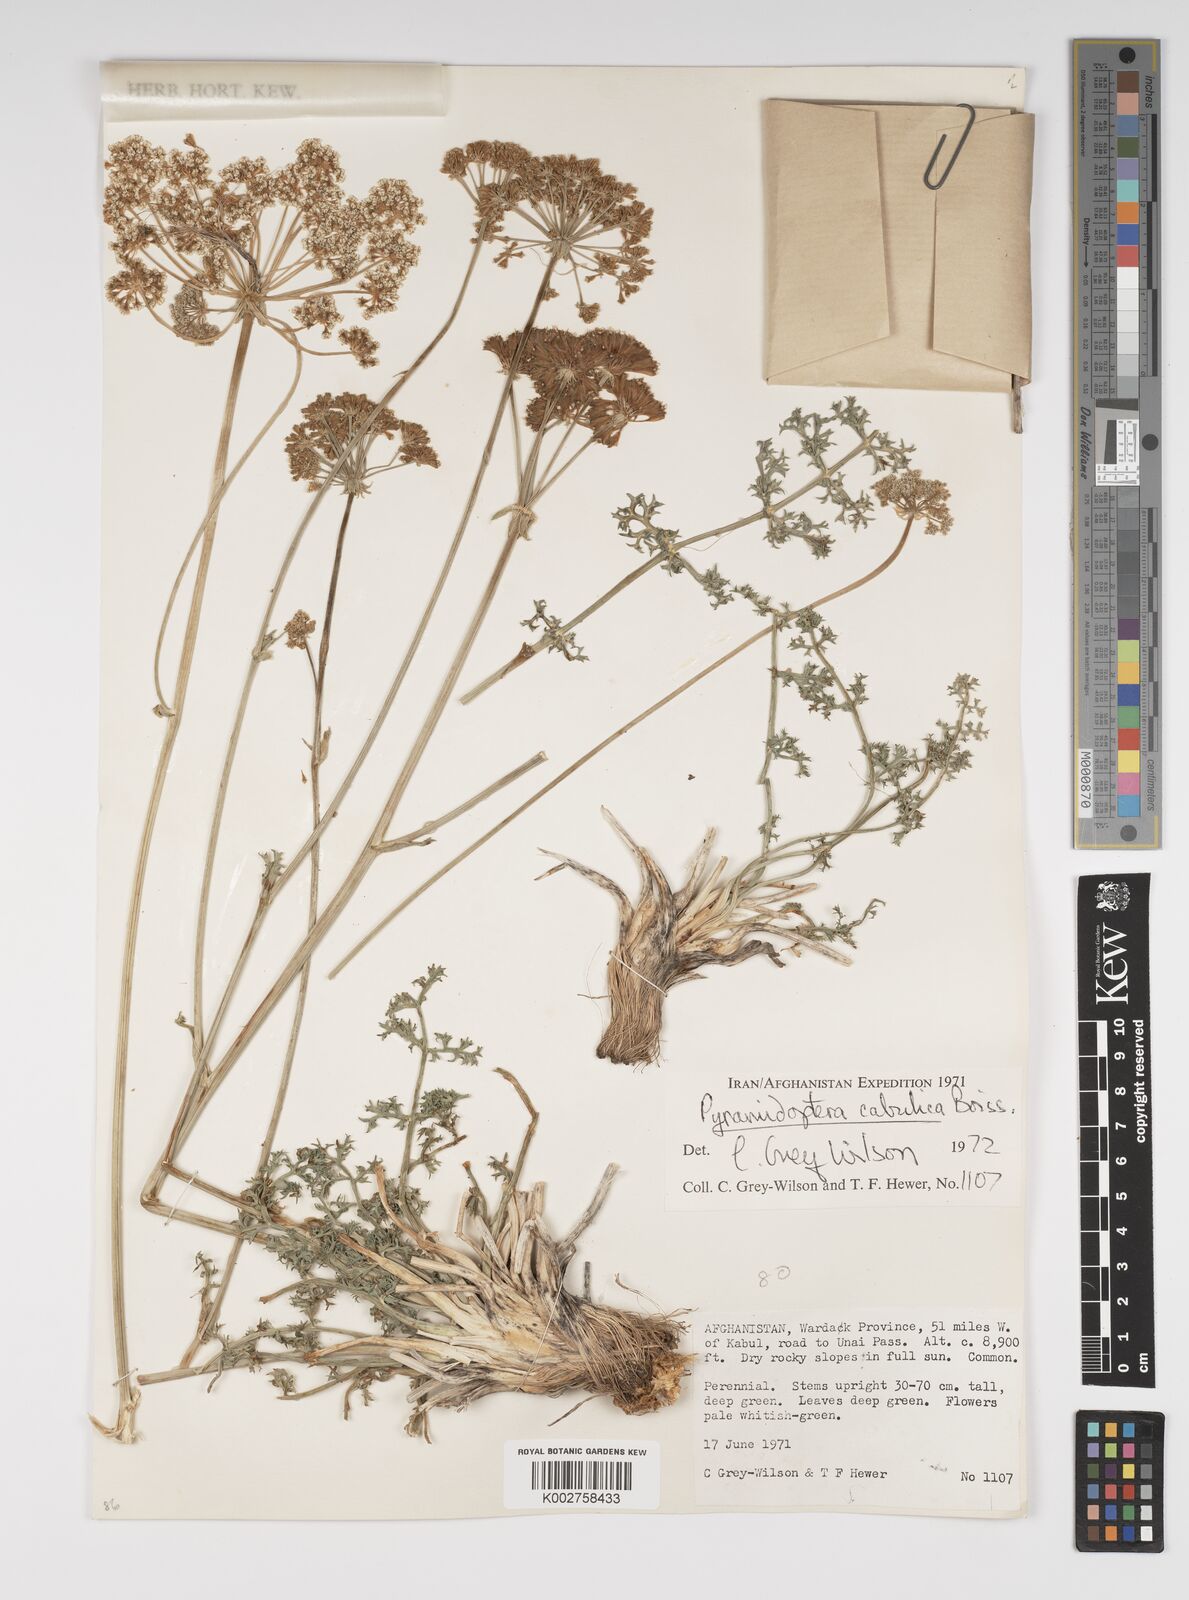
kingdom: Plantae
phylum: Tracheophyta
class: Magnoliopsida
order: Apiales
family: Apiaceae
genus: Pyramidoptera
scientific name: Pyramidoptera cabulica
